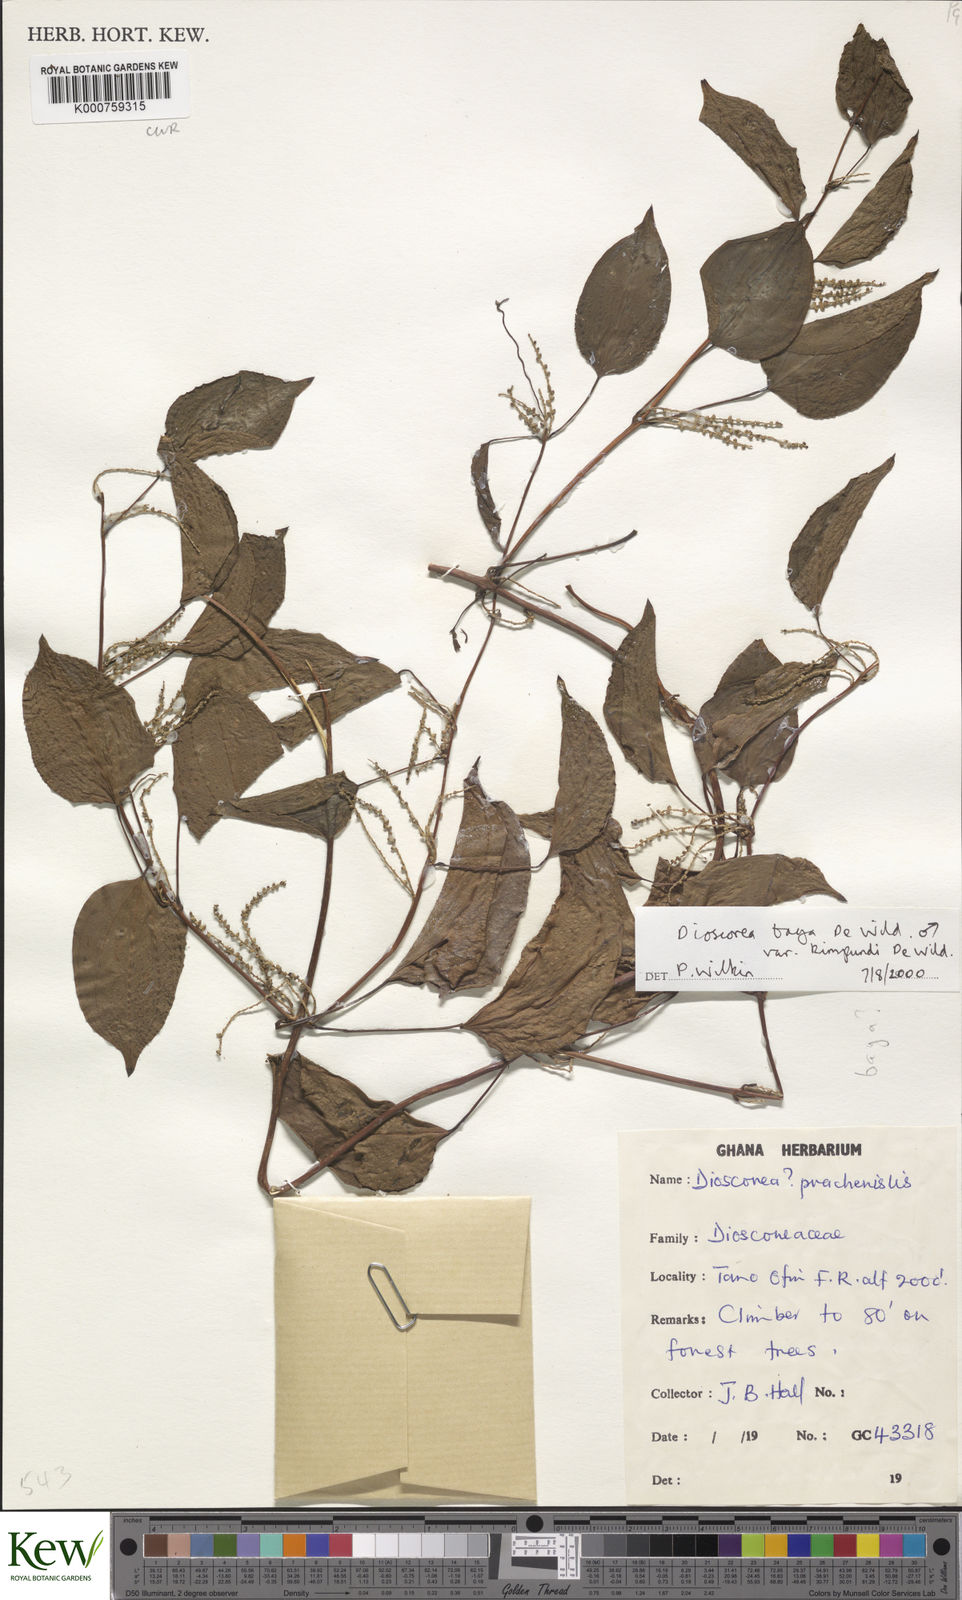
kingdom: Plantae
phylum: Tracheophyta
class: Liliopsida
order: Dioscoreales
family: Dioscoreaceae
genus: Dioscorea
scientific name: Dioscorea baya
